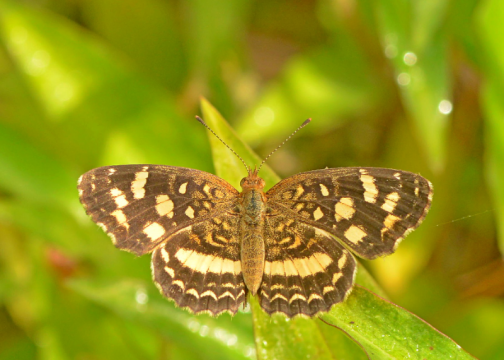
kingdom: Animalia
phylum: Arthropoda
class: Insecta
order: Lepidoptera
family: Nymphalidae
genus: Anthanassa
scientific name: Anthanassa tulcis
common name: Pale-banded Crescent
